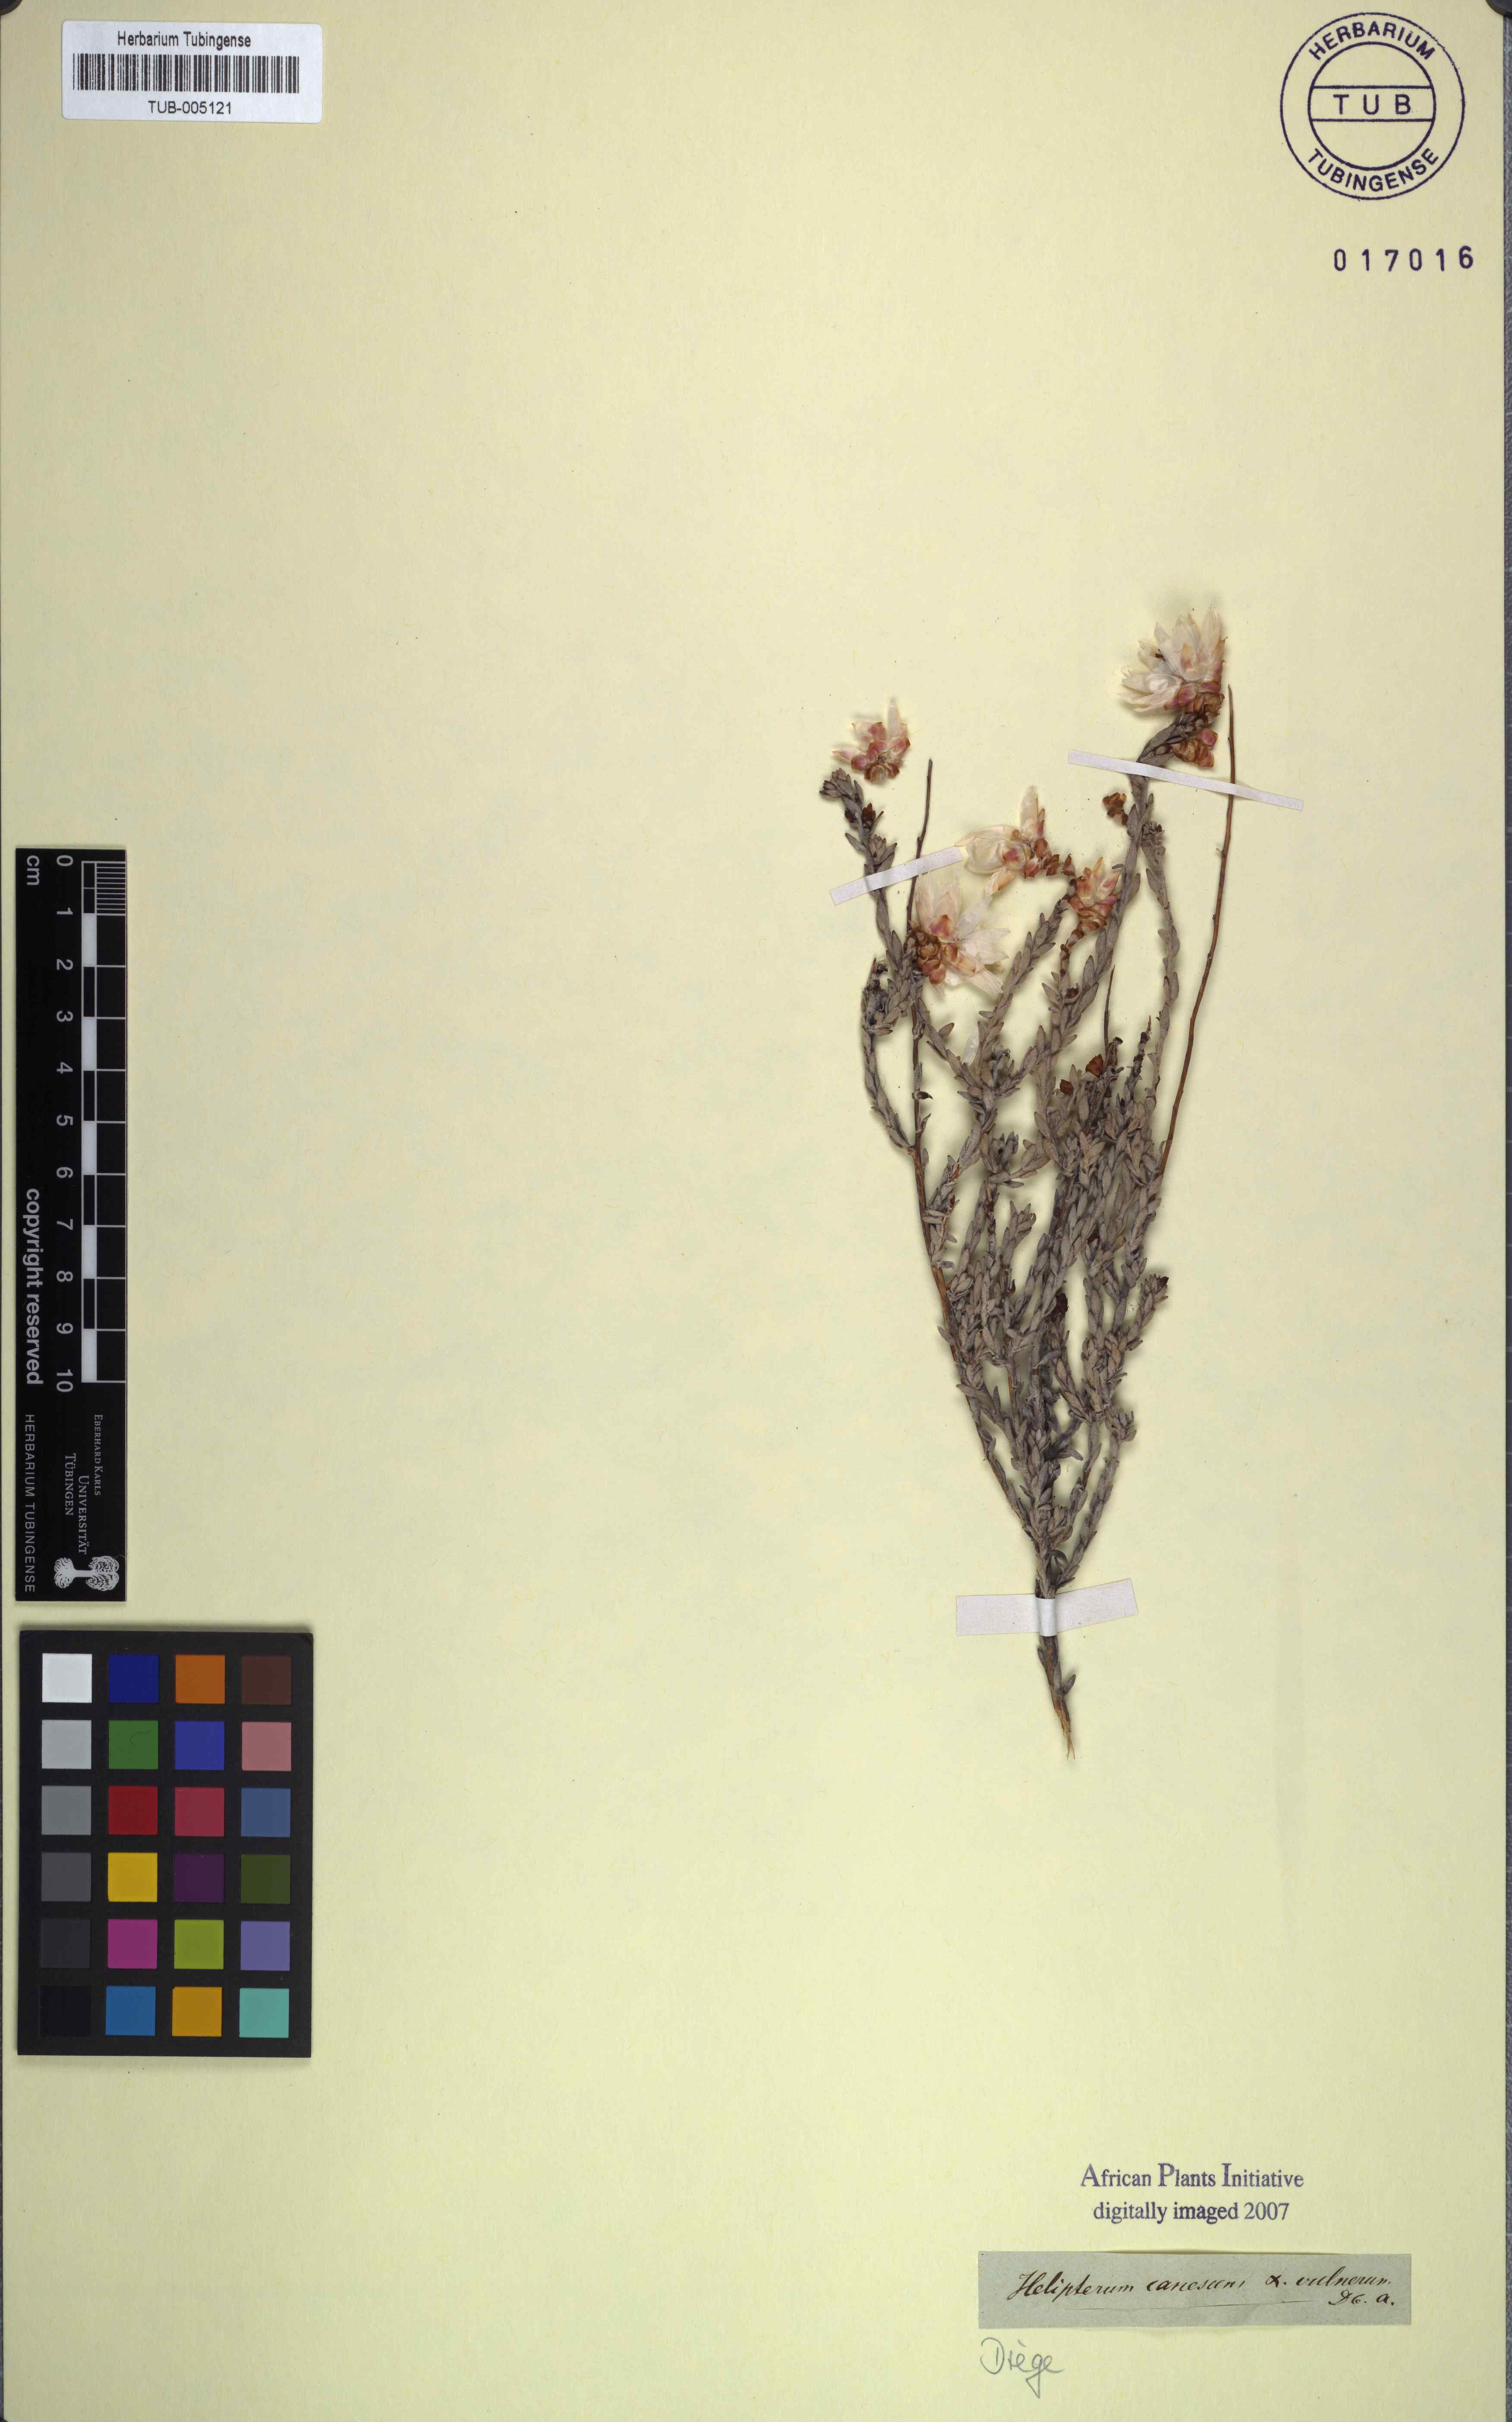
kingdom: Plantae
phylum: Tracheophyta
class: Magnoliopsida
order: Asterales
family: Asteraceae
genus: Syncarpha
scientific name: Syncarpha canescens
